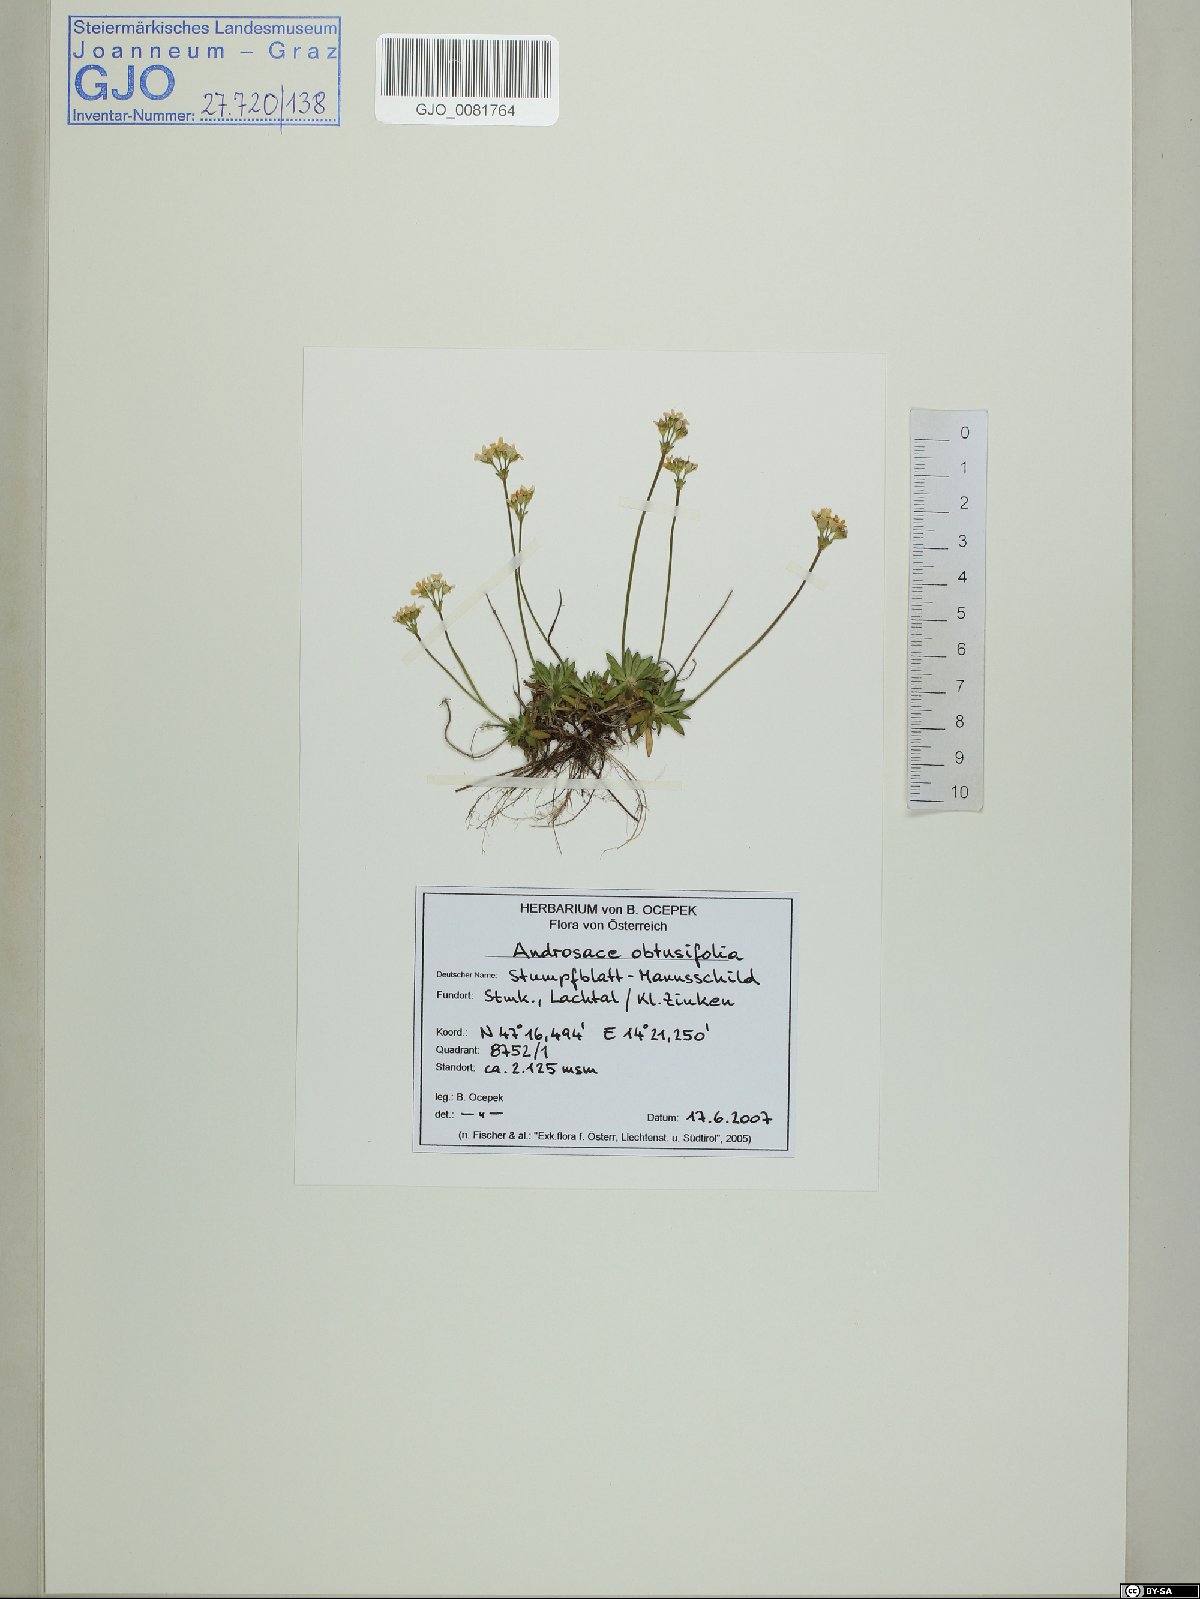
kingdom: Plantae
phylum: Tracheophyta
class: Magnoliopsida
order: Ericales
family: Primulaceae
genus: Androsace
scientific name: Androsace obtusifolia
